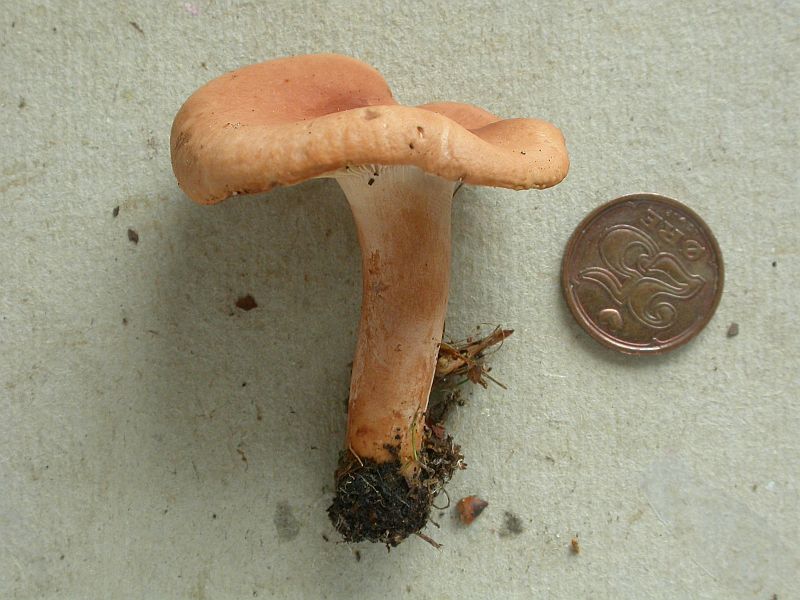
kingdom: Fungi
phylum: Basidiomycota
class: Agaricomycetes
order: Russulales
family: Russulaceae
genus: Lactarius
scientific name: Lactarius decipiens
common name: pelargonie-mælkehat
